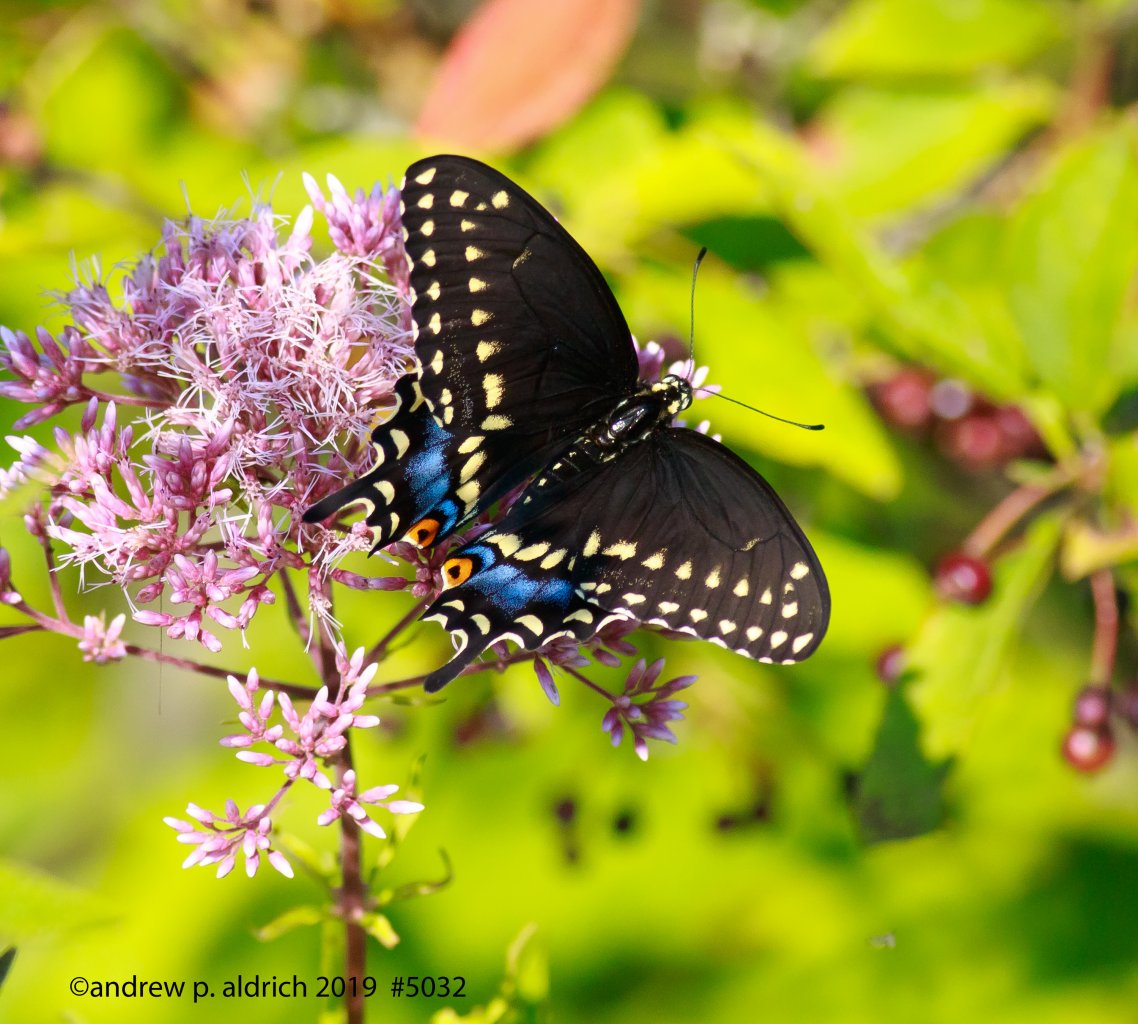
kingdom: Animalia
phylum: Arthropoda
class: Insecta
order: Lepidoptera
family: Papilionidae
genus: Papilio
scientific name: Papilio polyxenes
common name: Black Swallowtail
